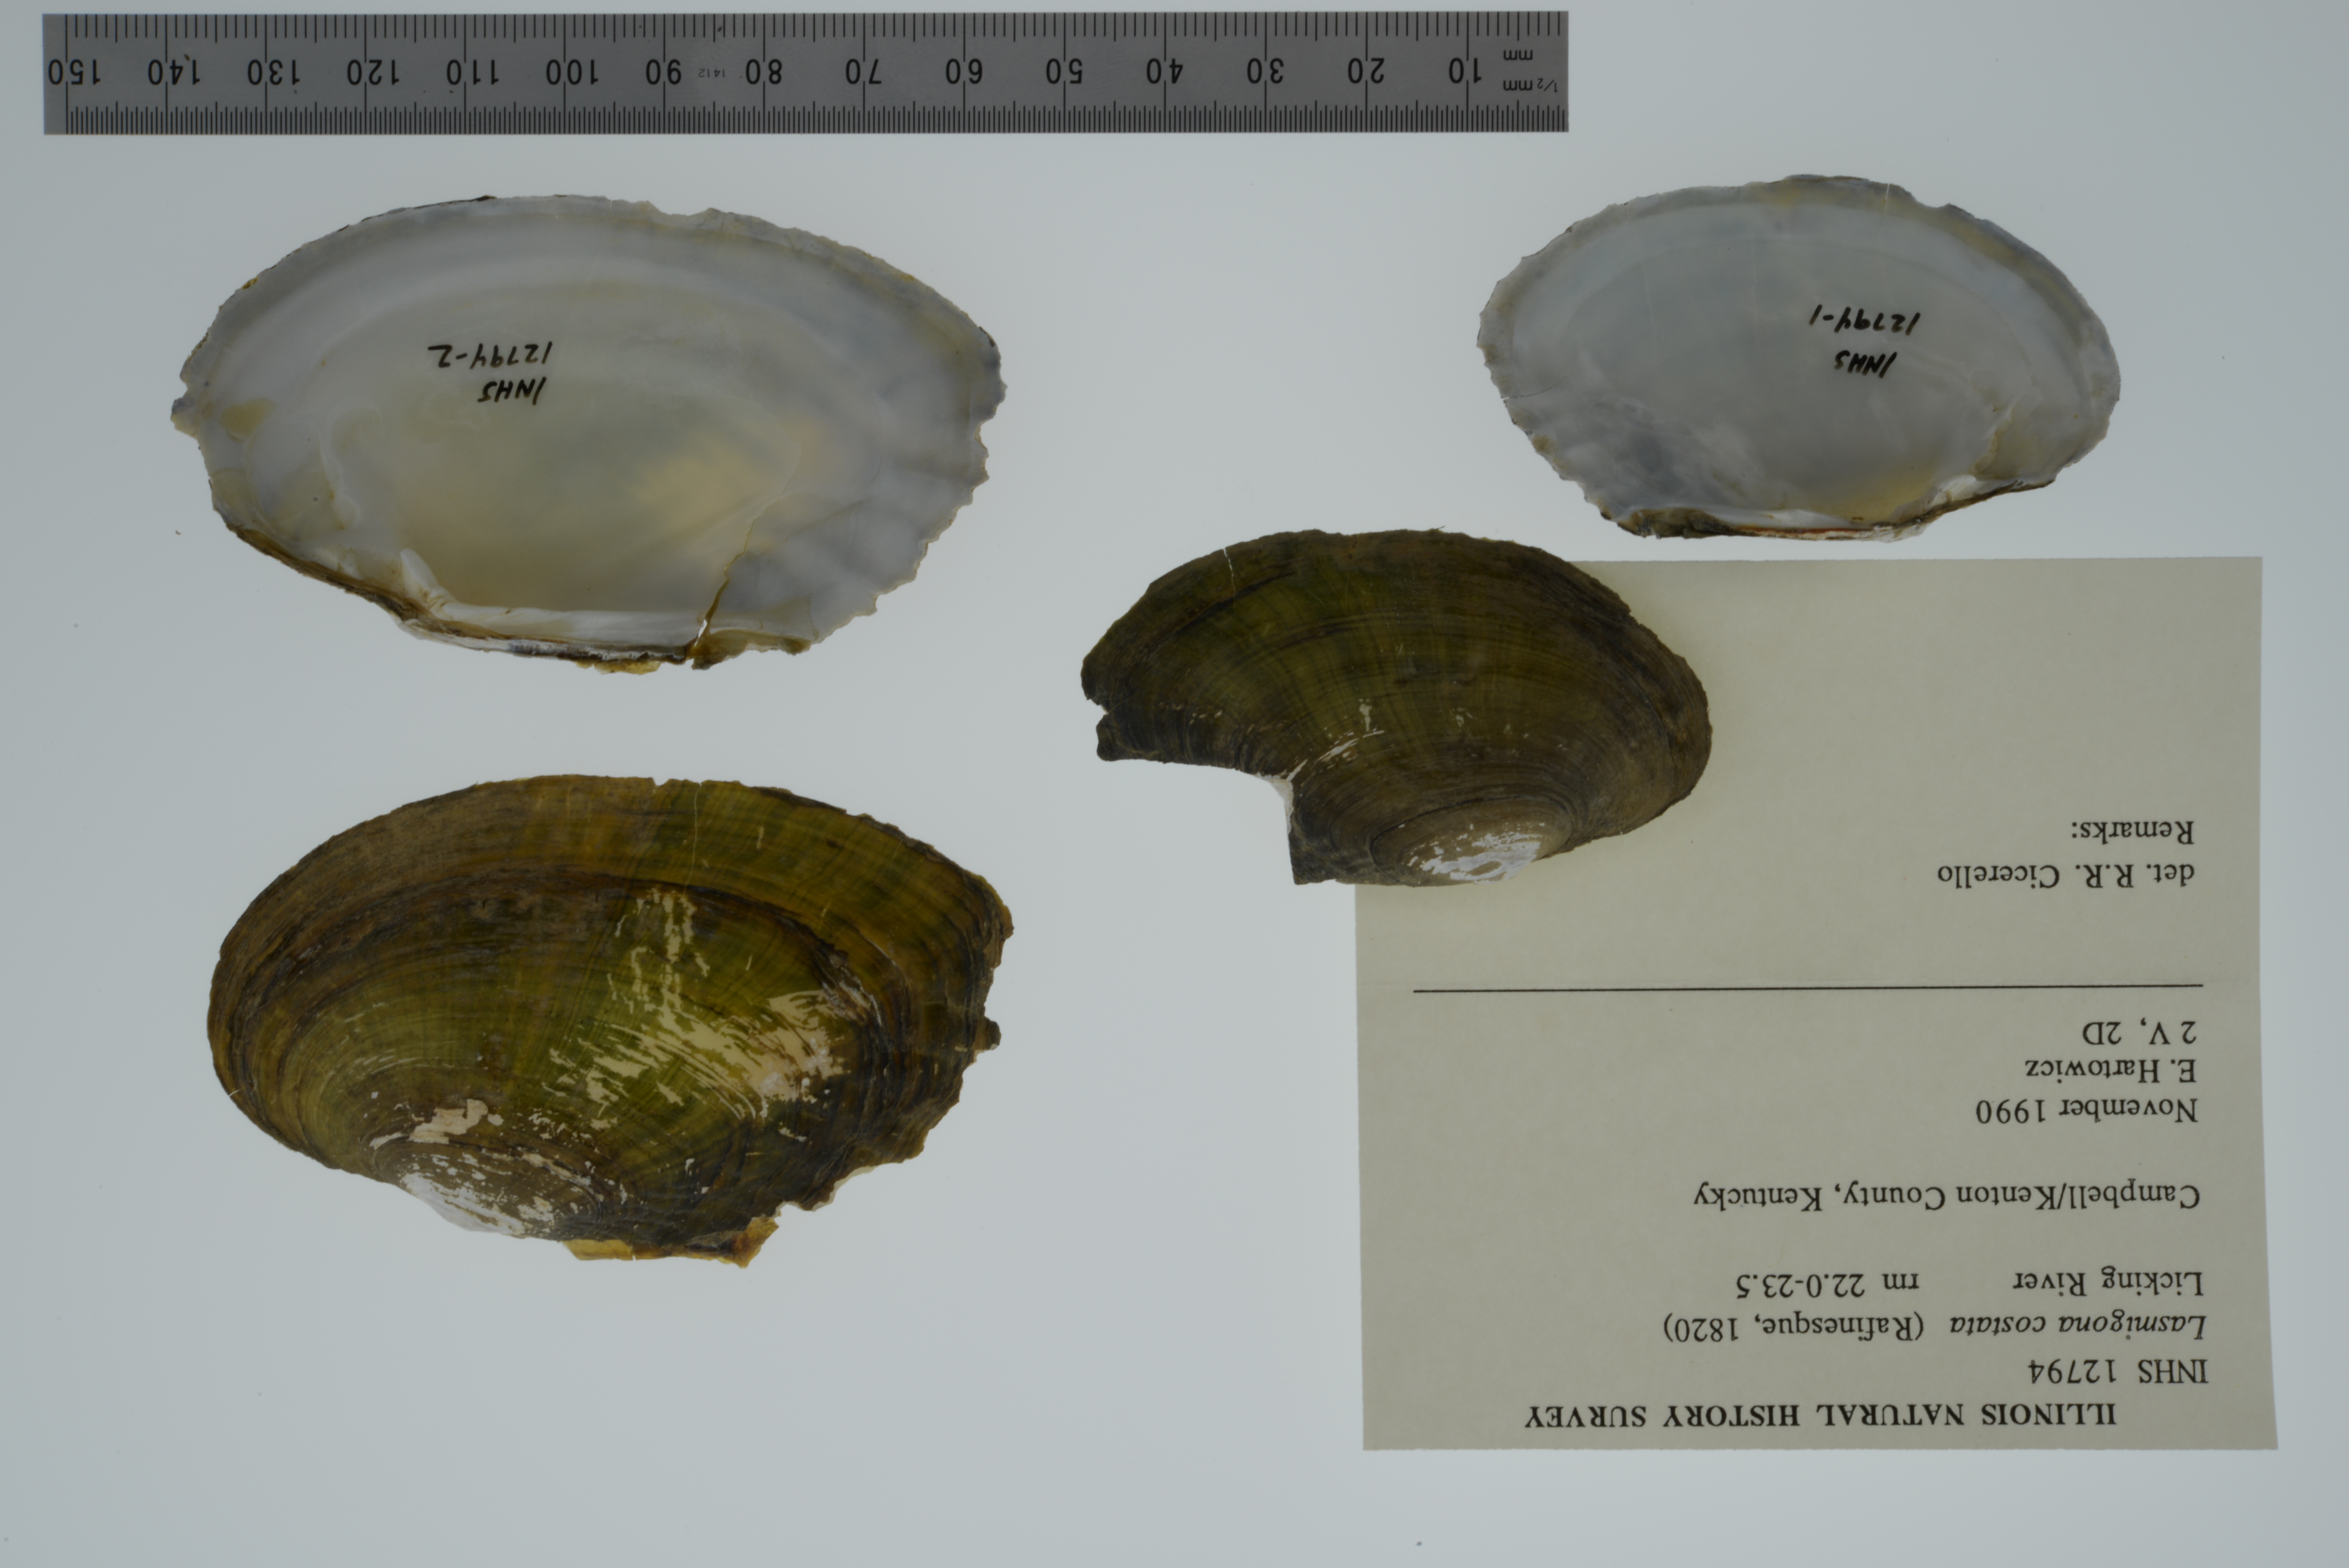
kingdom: Animalia
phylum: Mollusca
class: Bivalvia
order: Unionida
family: Unionidae
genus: Lasmigona
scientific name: Lasmigona costata
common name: Flutedshell
